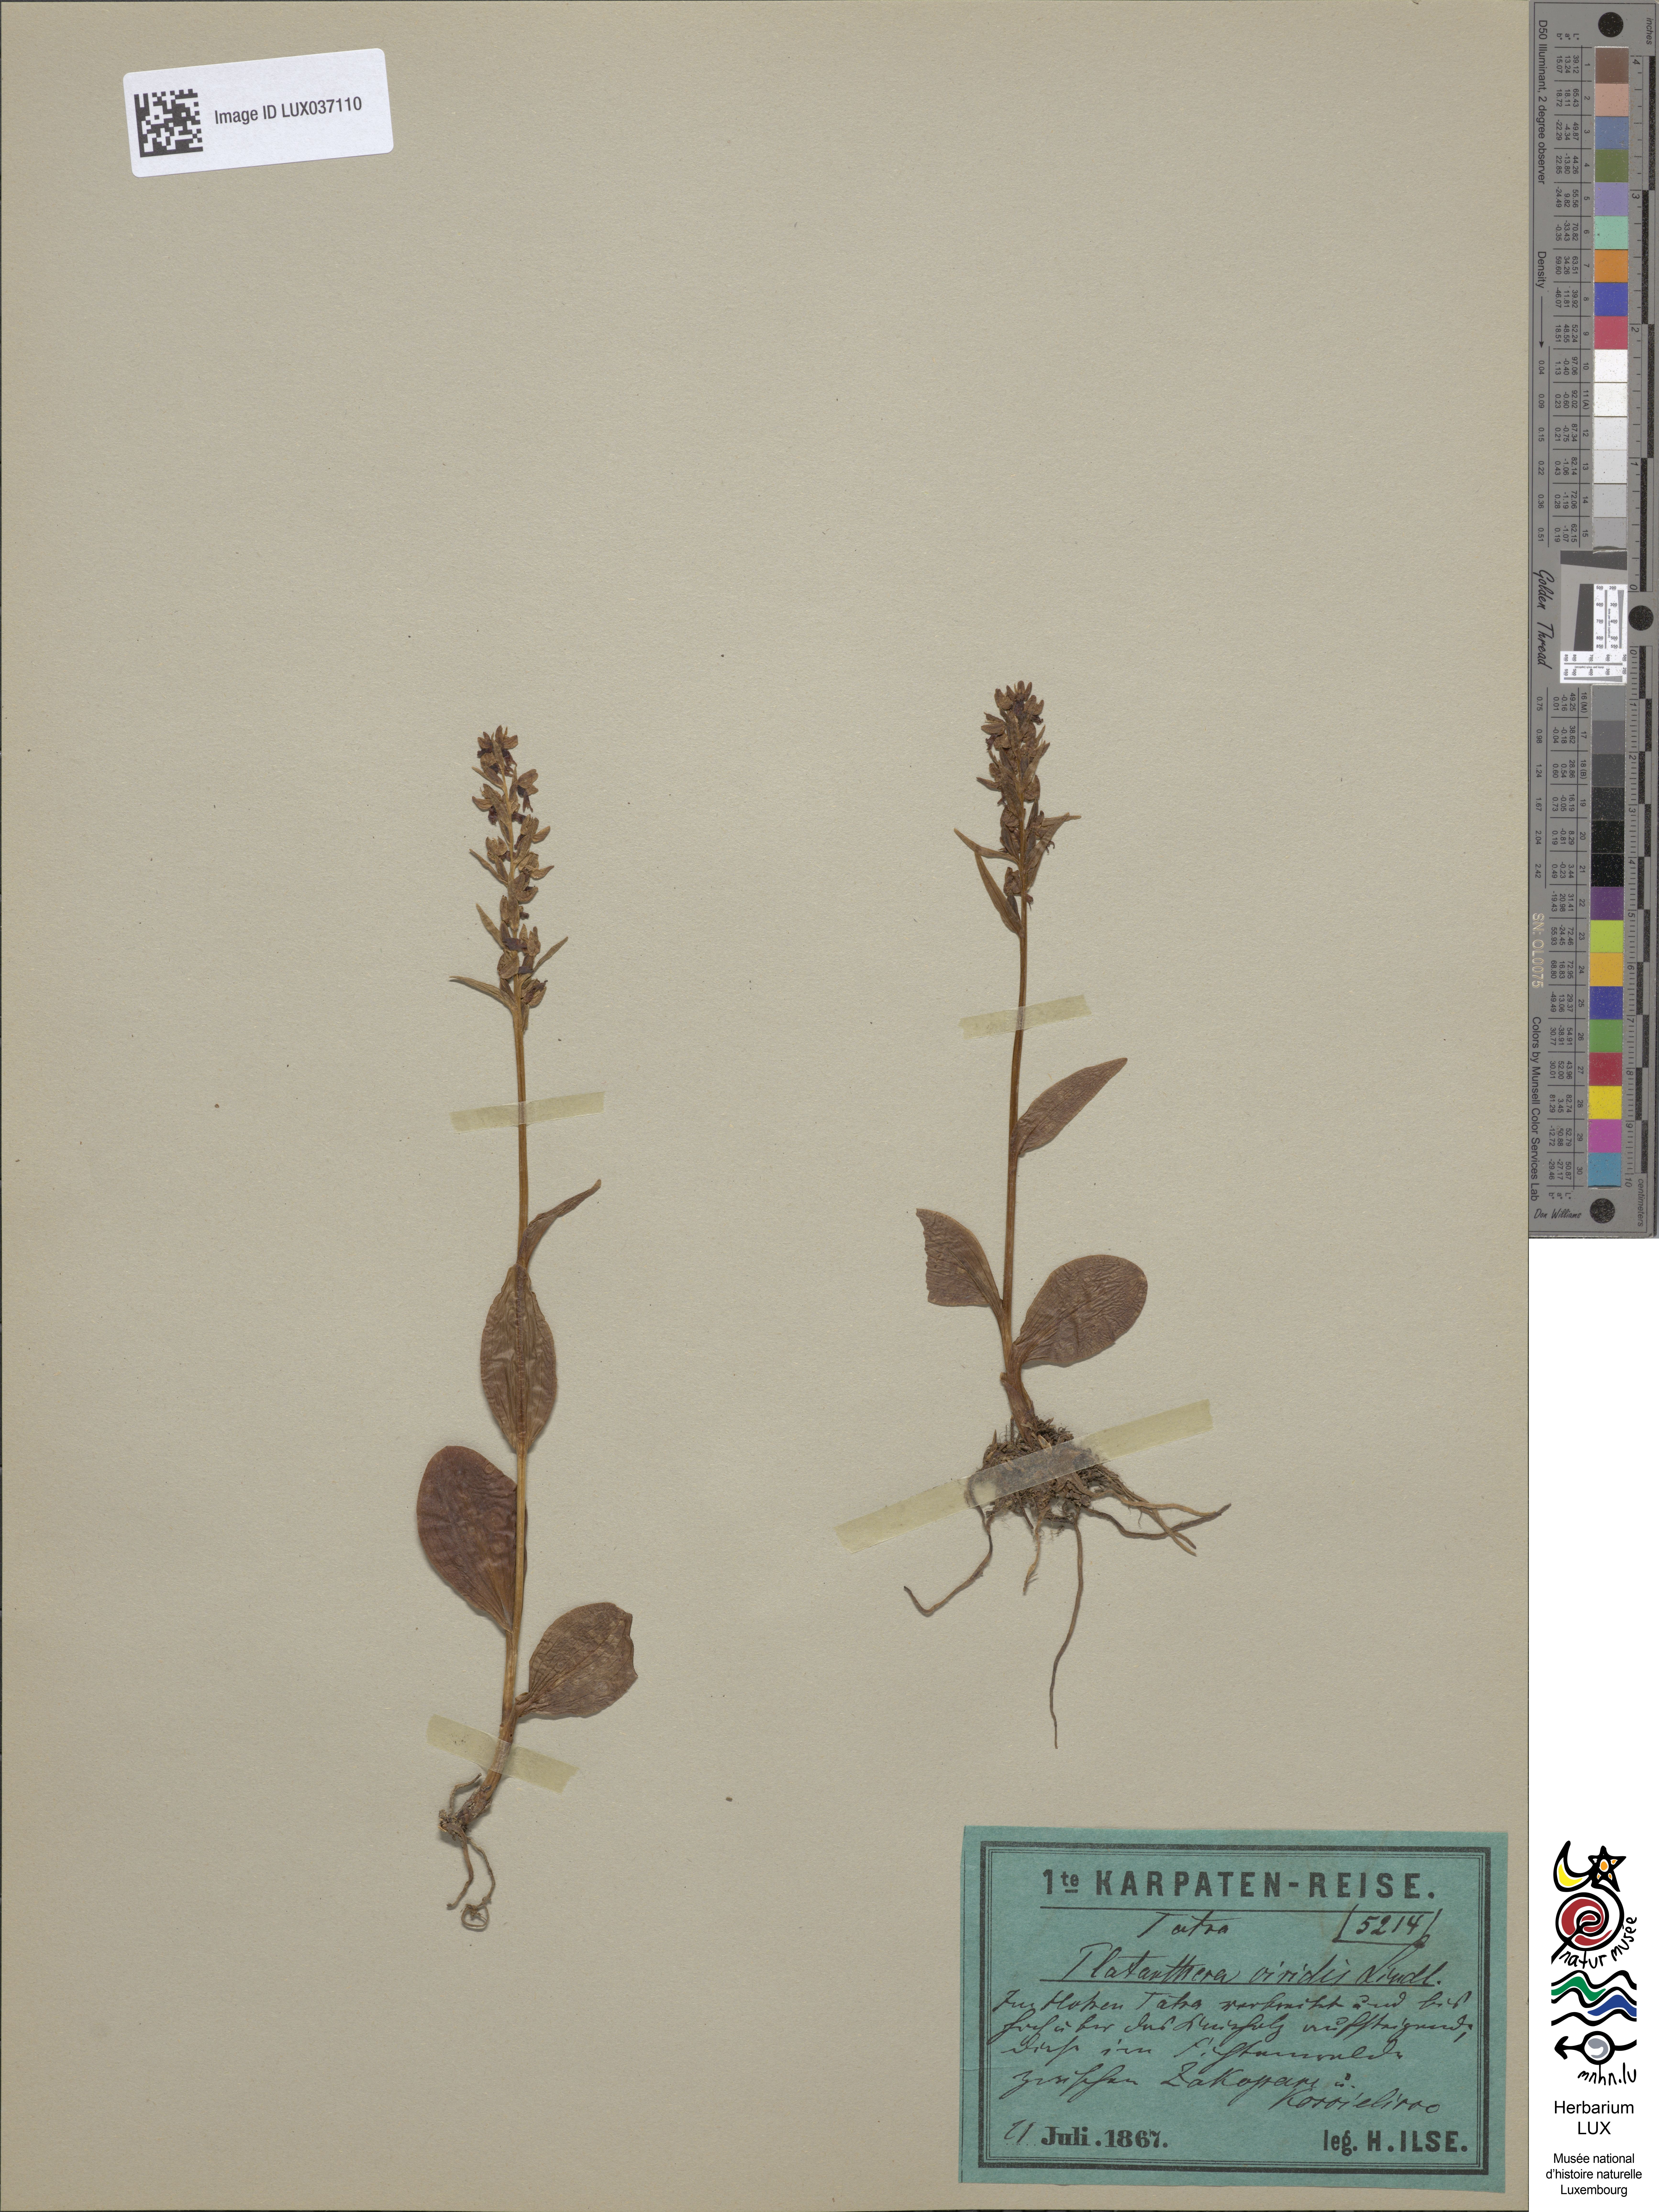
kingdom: Plantae
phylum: Tracheophyta
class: Liliopsida
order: Asparagales
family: Orchidaceae
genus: Dactylorhiza
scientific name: Dactylorhiza viridis
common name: Longbract frog orchid
